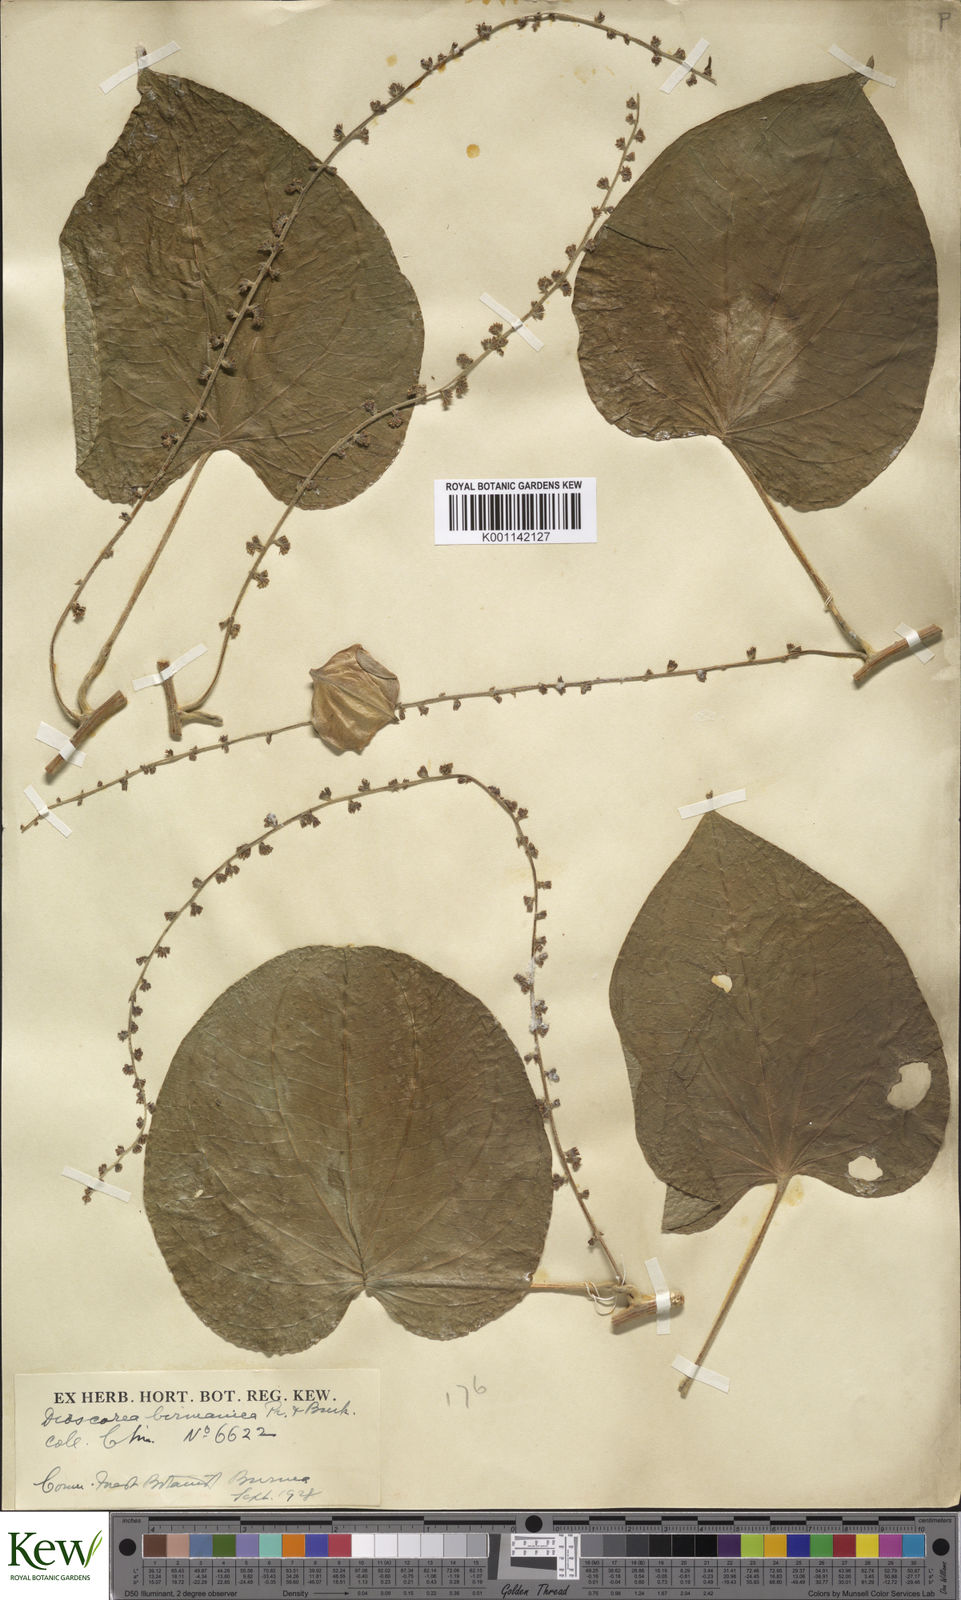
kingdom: Plantae
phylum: Tracheophyta
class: Liliopsida
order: Dioscoreales
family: Dioscoreaceae
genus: Dioscorea
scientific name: Dioscorea birmanica
